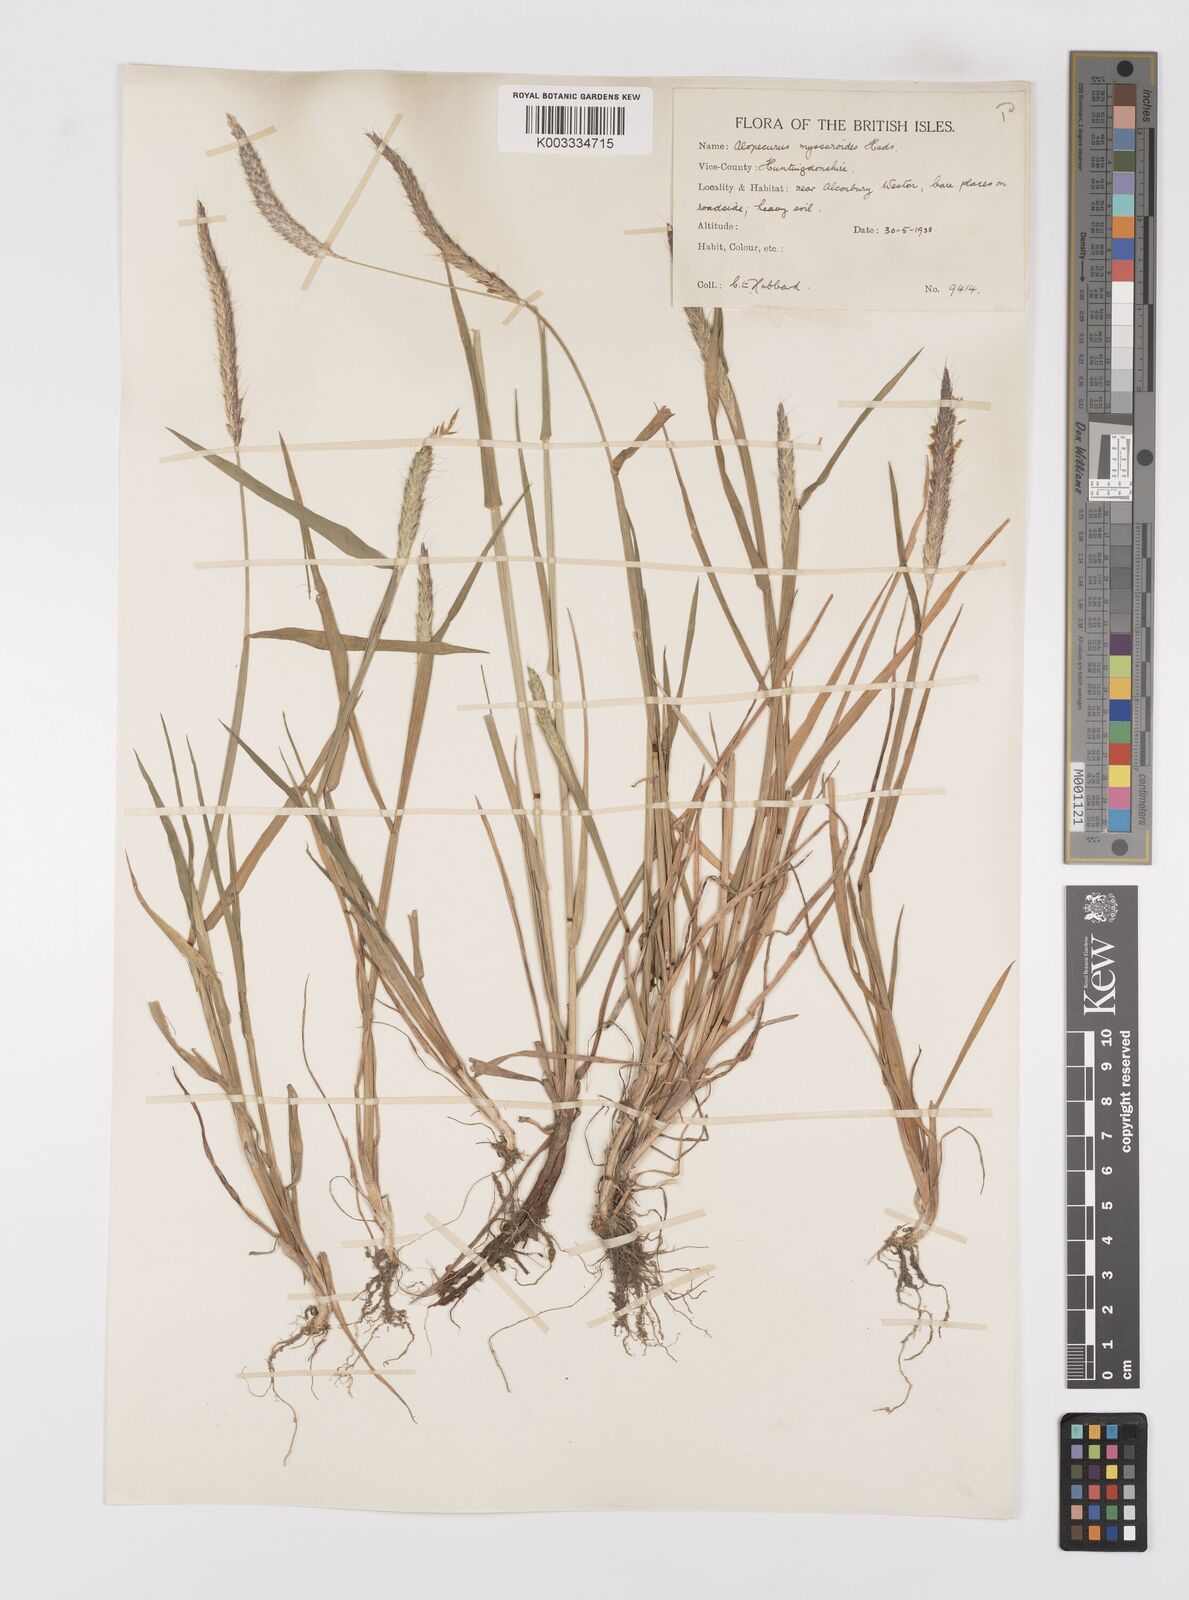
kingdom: Plantae
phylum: Tracheophyta
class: Liliopsida
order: Poales
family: Poaceae
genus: Alopecurus
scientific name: Alopecurus myosuroides
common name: Black-grass
